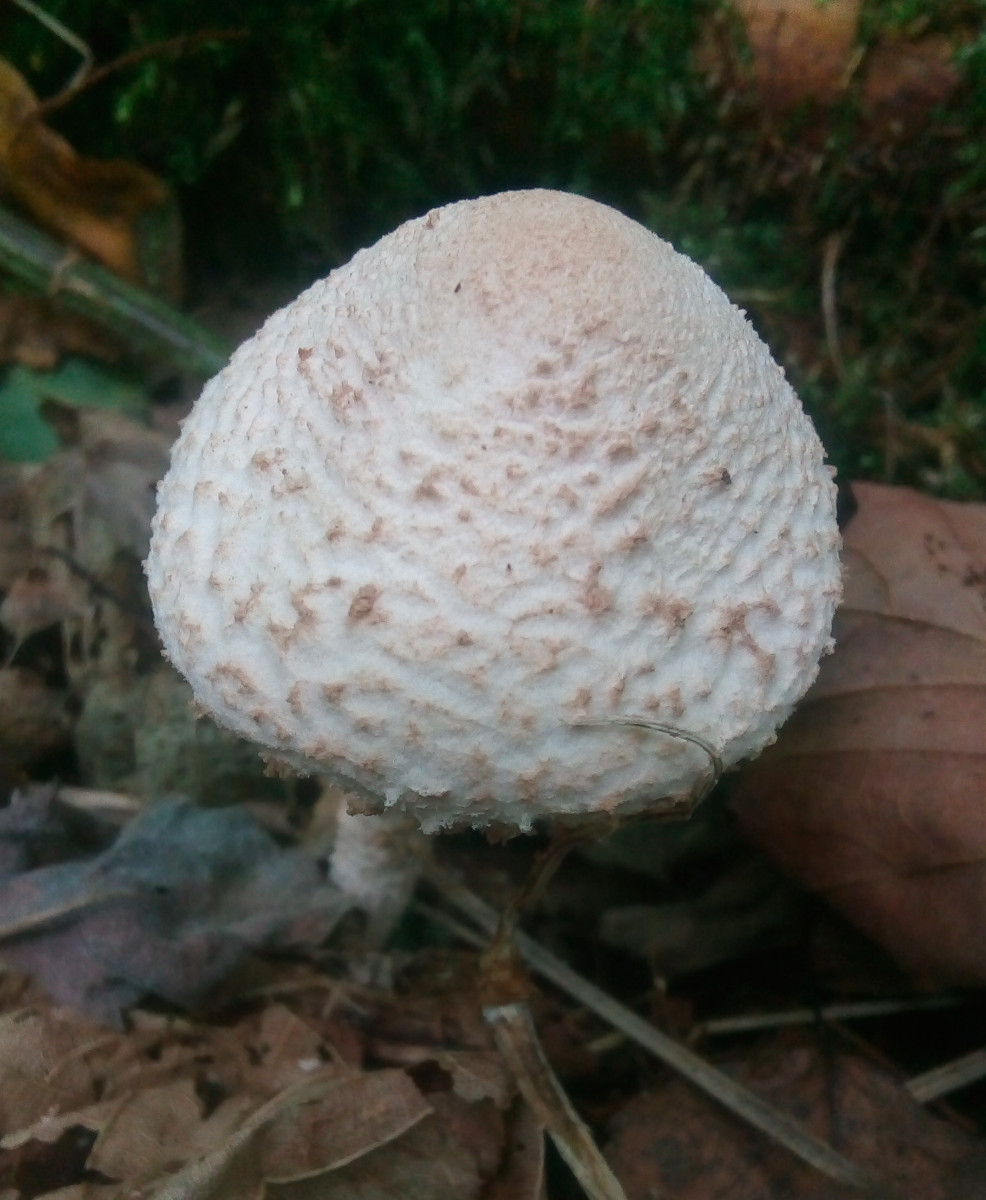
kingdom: Fungi
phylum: Basidiomycota
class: Agaricomycetes
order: Agaricales
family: Agaricaceae
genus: Lepiota
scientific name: Lepiota clypeolaria
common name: flosset parasolhat
